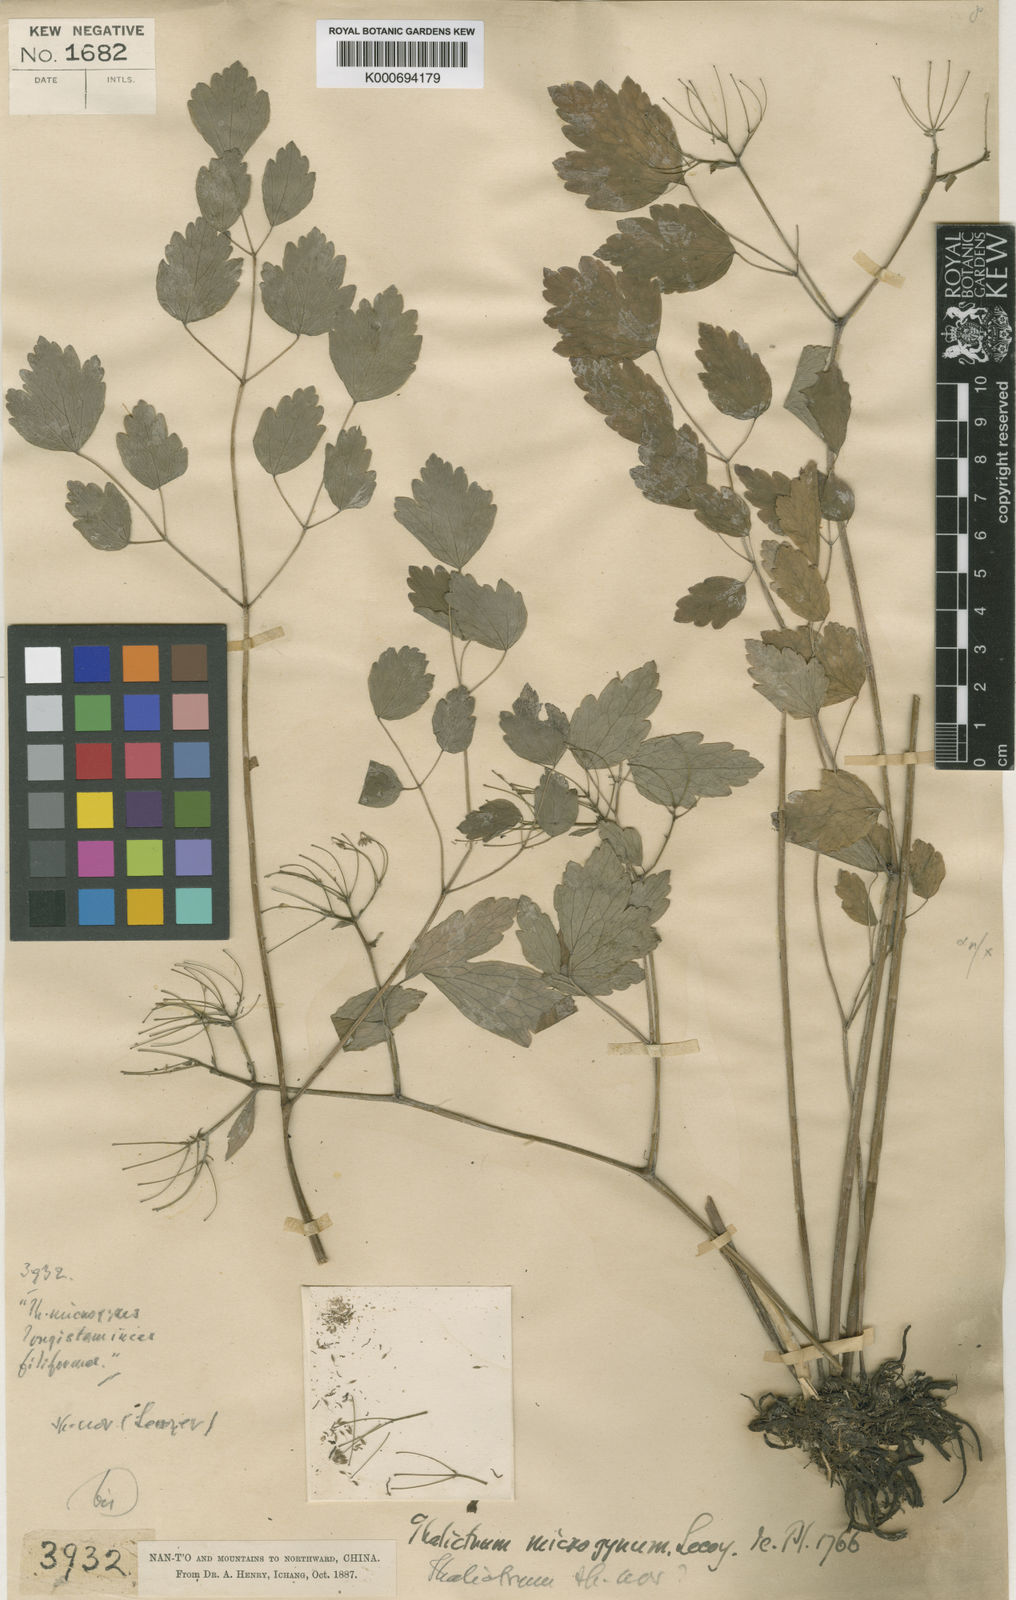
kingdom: Plantae
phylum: Tracheophyta
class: Magnoliopsida
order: Ranunculales
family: Ranunculaceae
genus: Thalictrum
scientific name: Thalictrum microgynum
